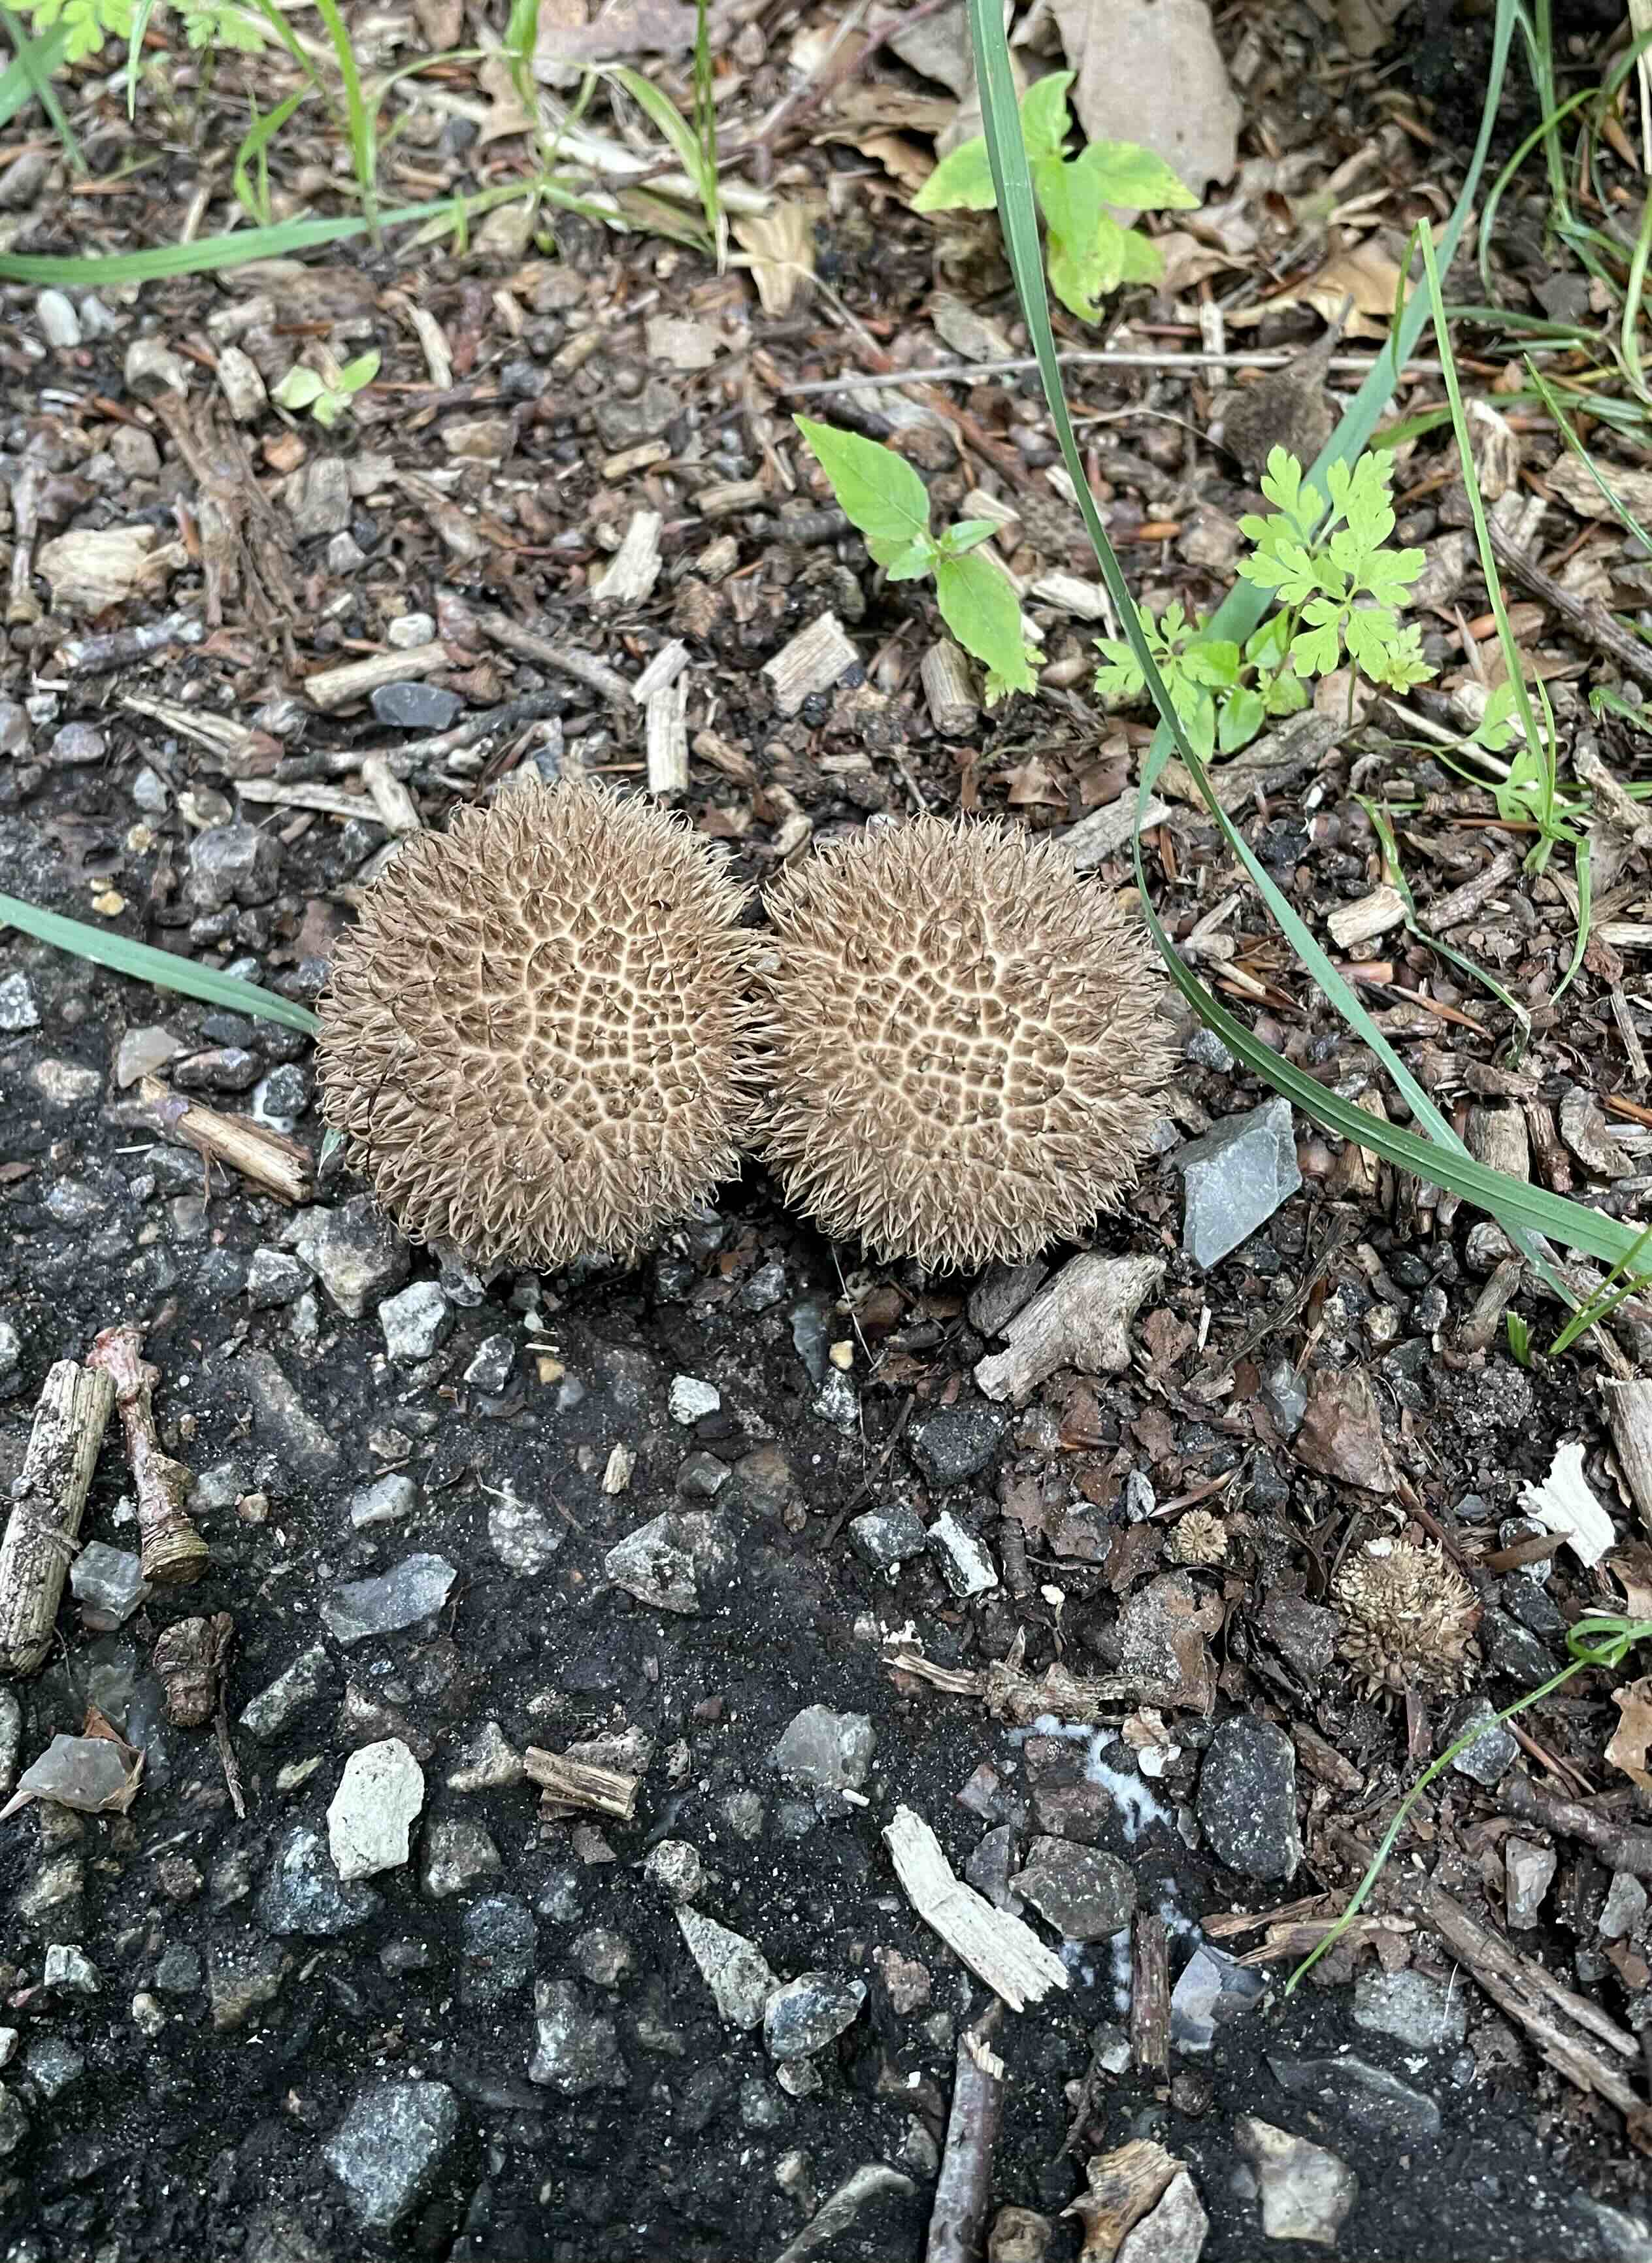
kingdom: Fungi
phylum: Basidiomycota
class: Agaricomycetes
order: Agaricales
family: Lycoperdaceae
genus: Lycoperdon
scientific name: Lycoperdon echinatum
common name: pindsvine-støvbold
